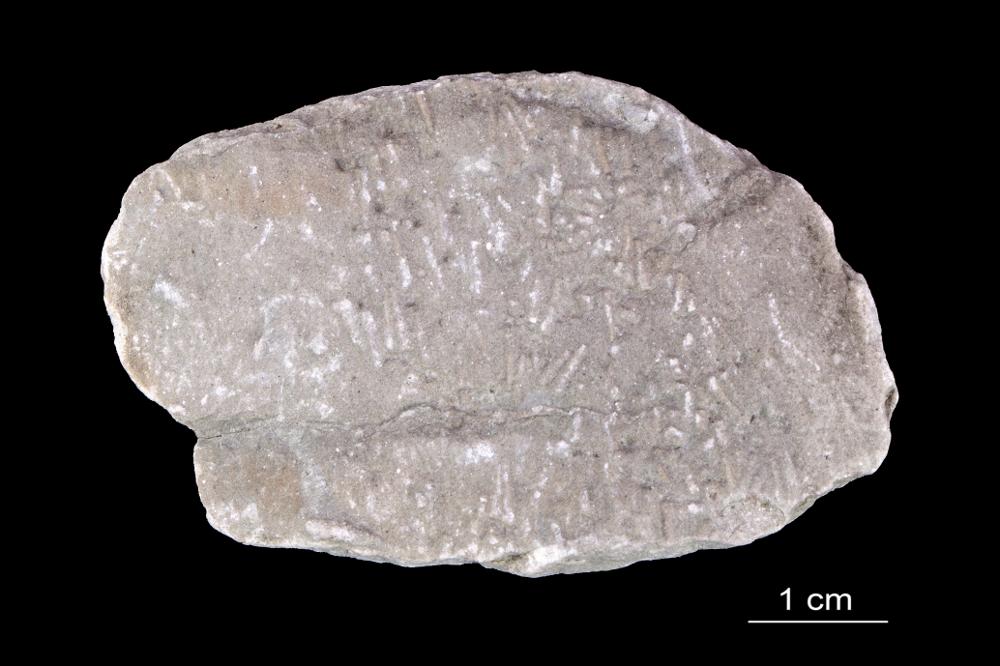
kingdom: Animalia
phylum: Annelida
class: Polychaeta
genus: Volborthella
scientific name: Volborthella tenuis
